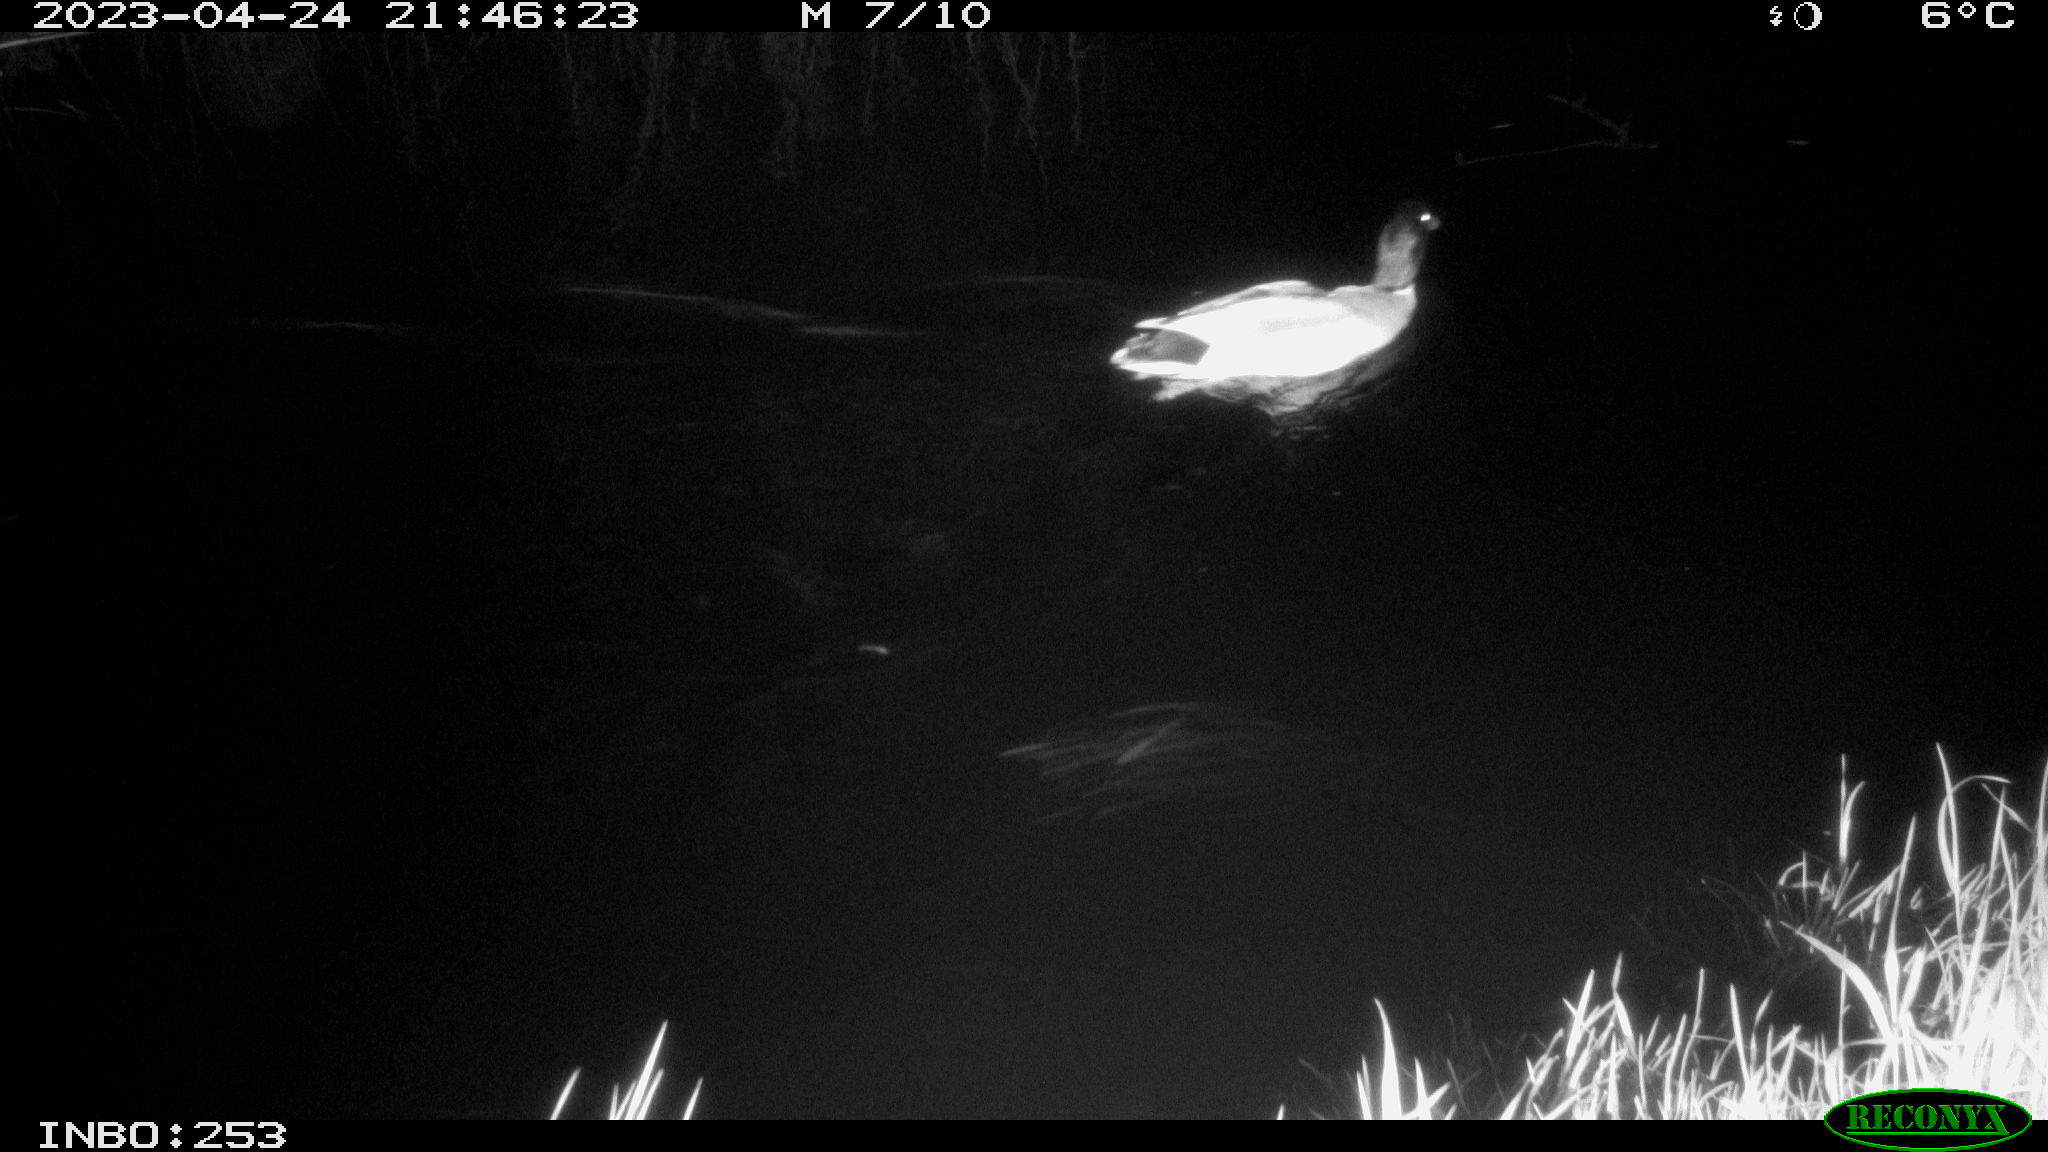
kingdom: Animalia
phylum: Chordata
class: Aves
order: Anseriformes
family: Anatidae
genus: Anas
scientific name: Anas
